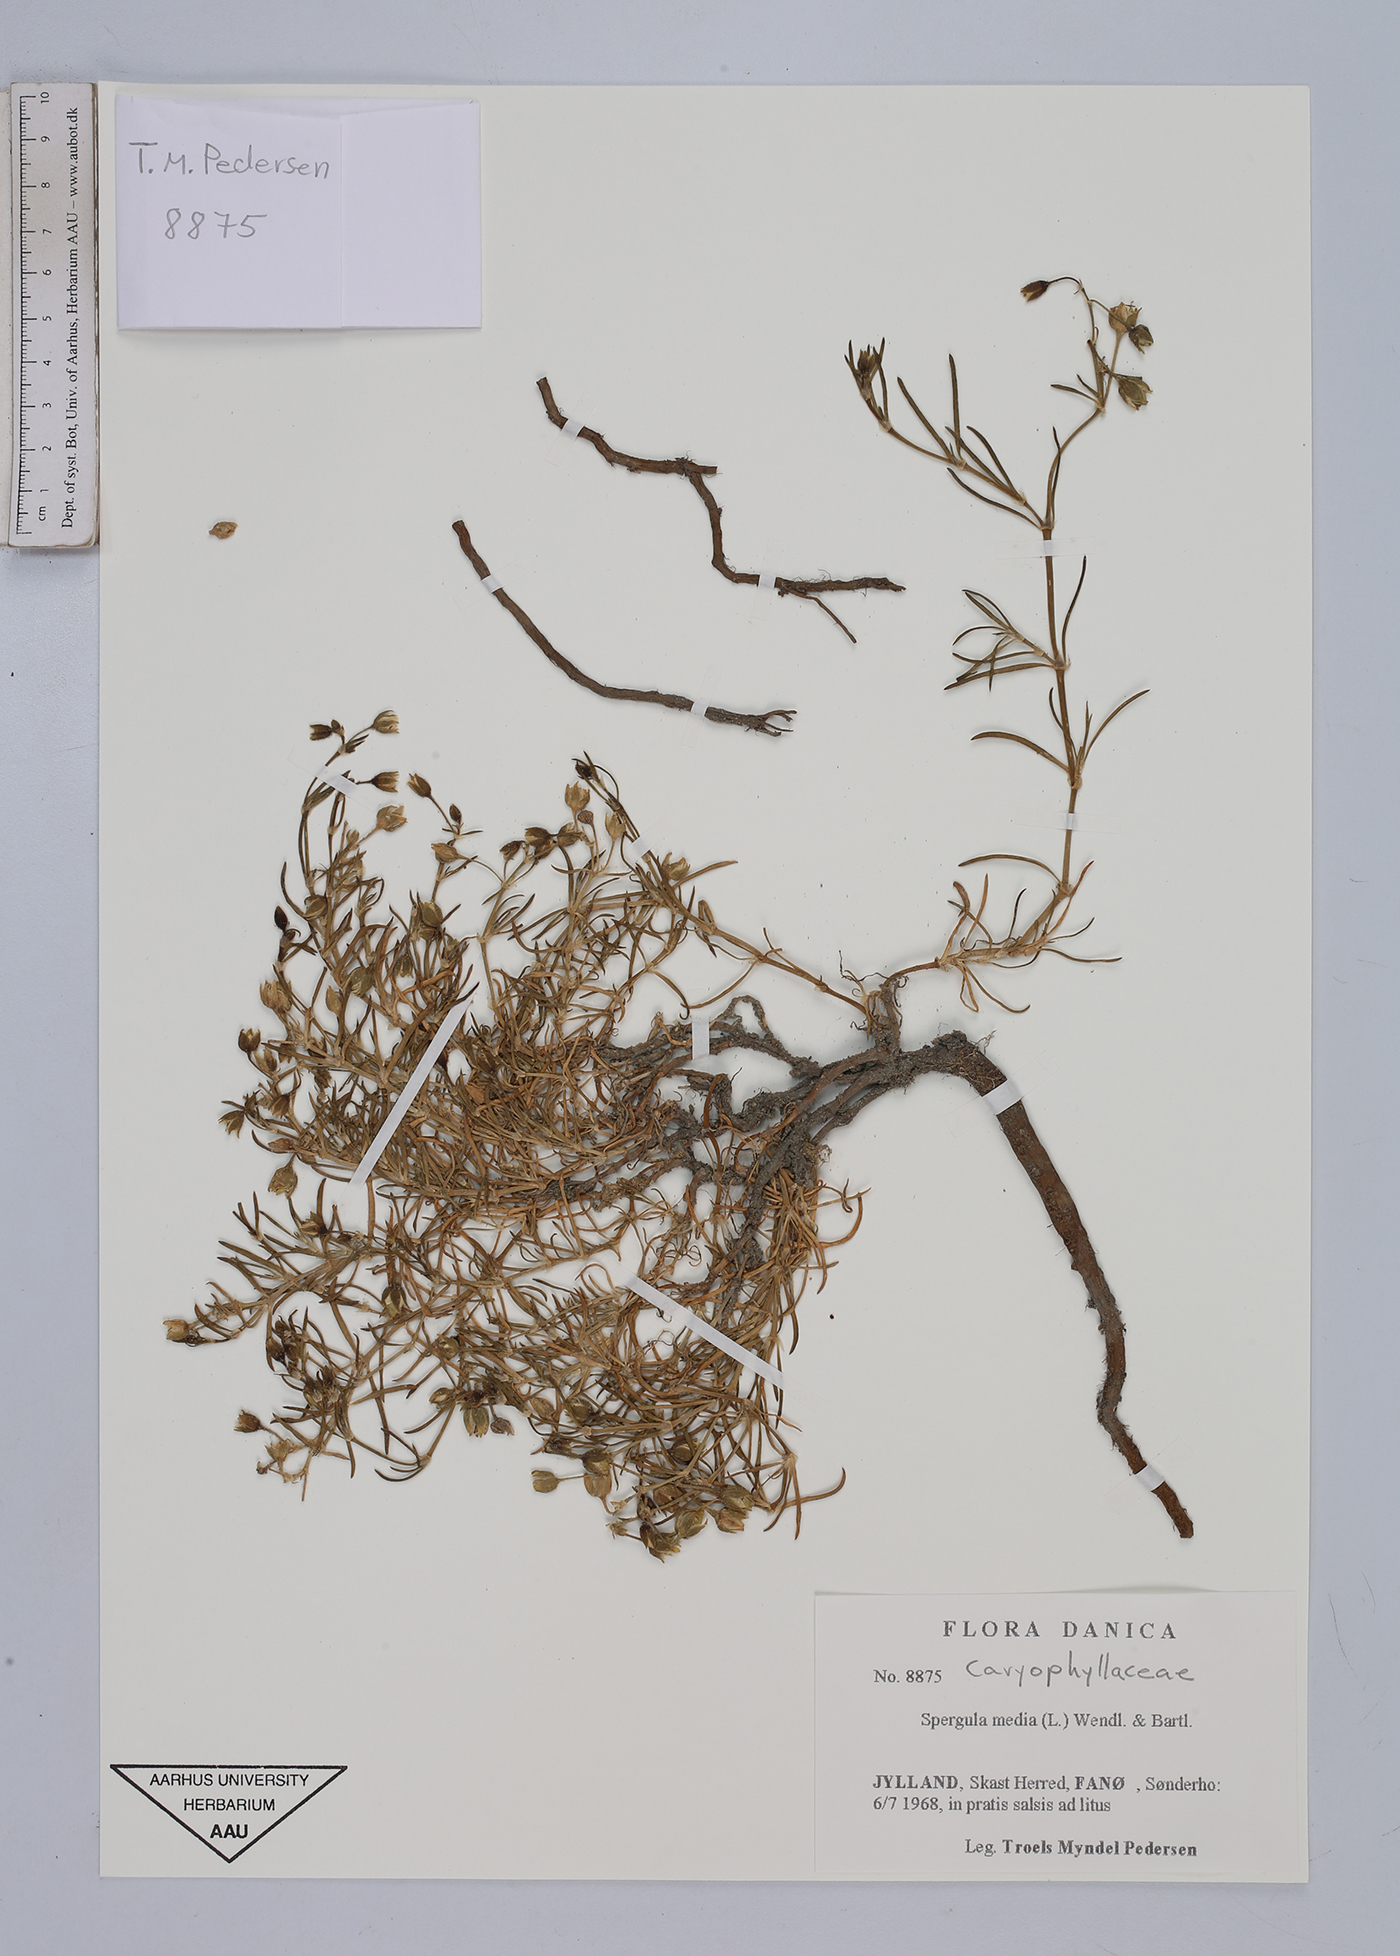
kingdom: Plantae
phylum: Tracheophyta
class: Magnoliopsida
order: Caryophyllales
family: Caryophyllaceae
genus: Spergularia
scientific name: Spergularia media
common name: Greater sea-spurrey
